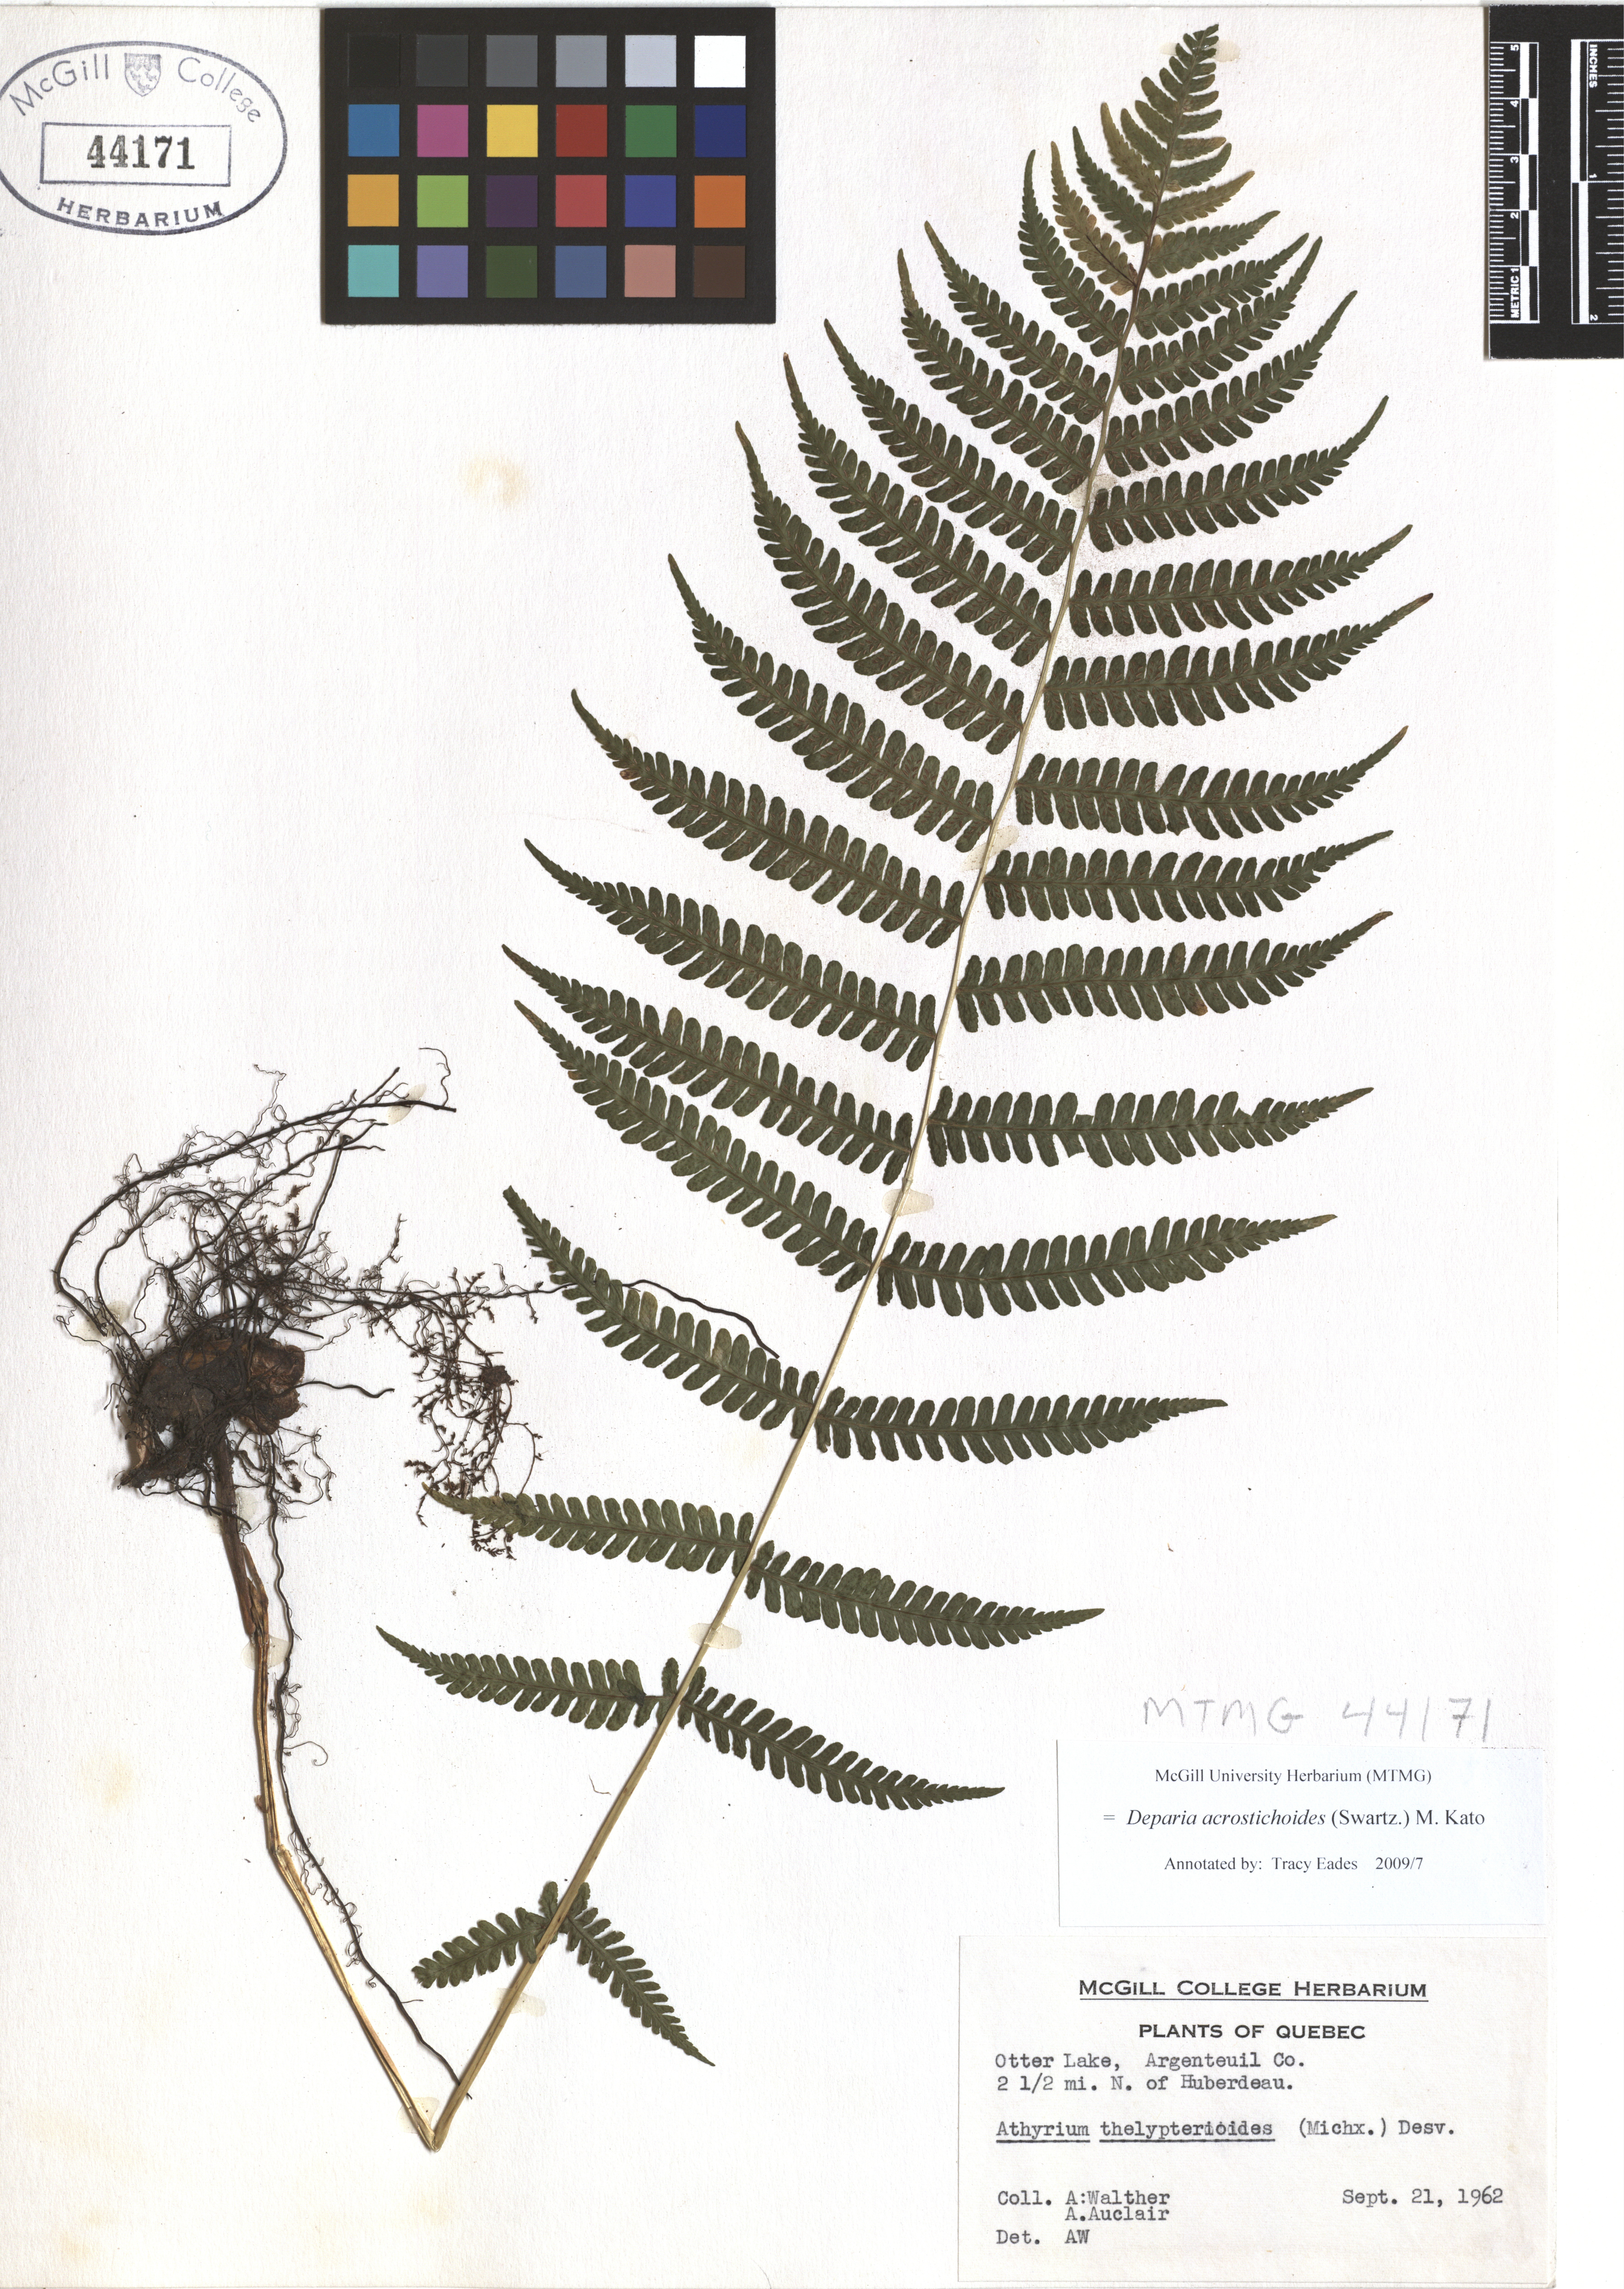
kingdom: Plantae
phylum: Tracheophyta
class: Polypodiopsida
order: Polypodiales
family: Athyriaceae
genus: Deparia
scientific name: Deparia acrostichoides
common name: Silver false spleenwort
